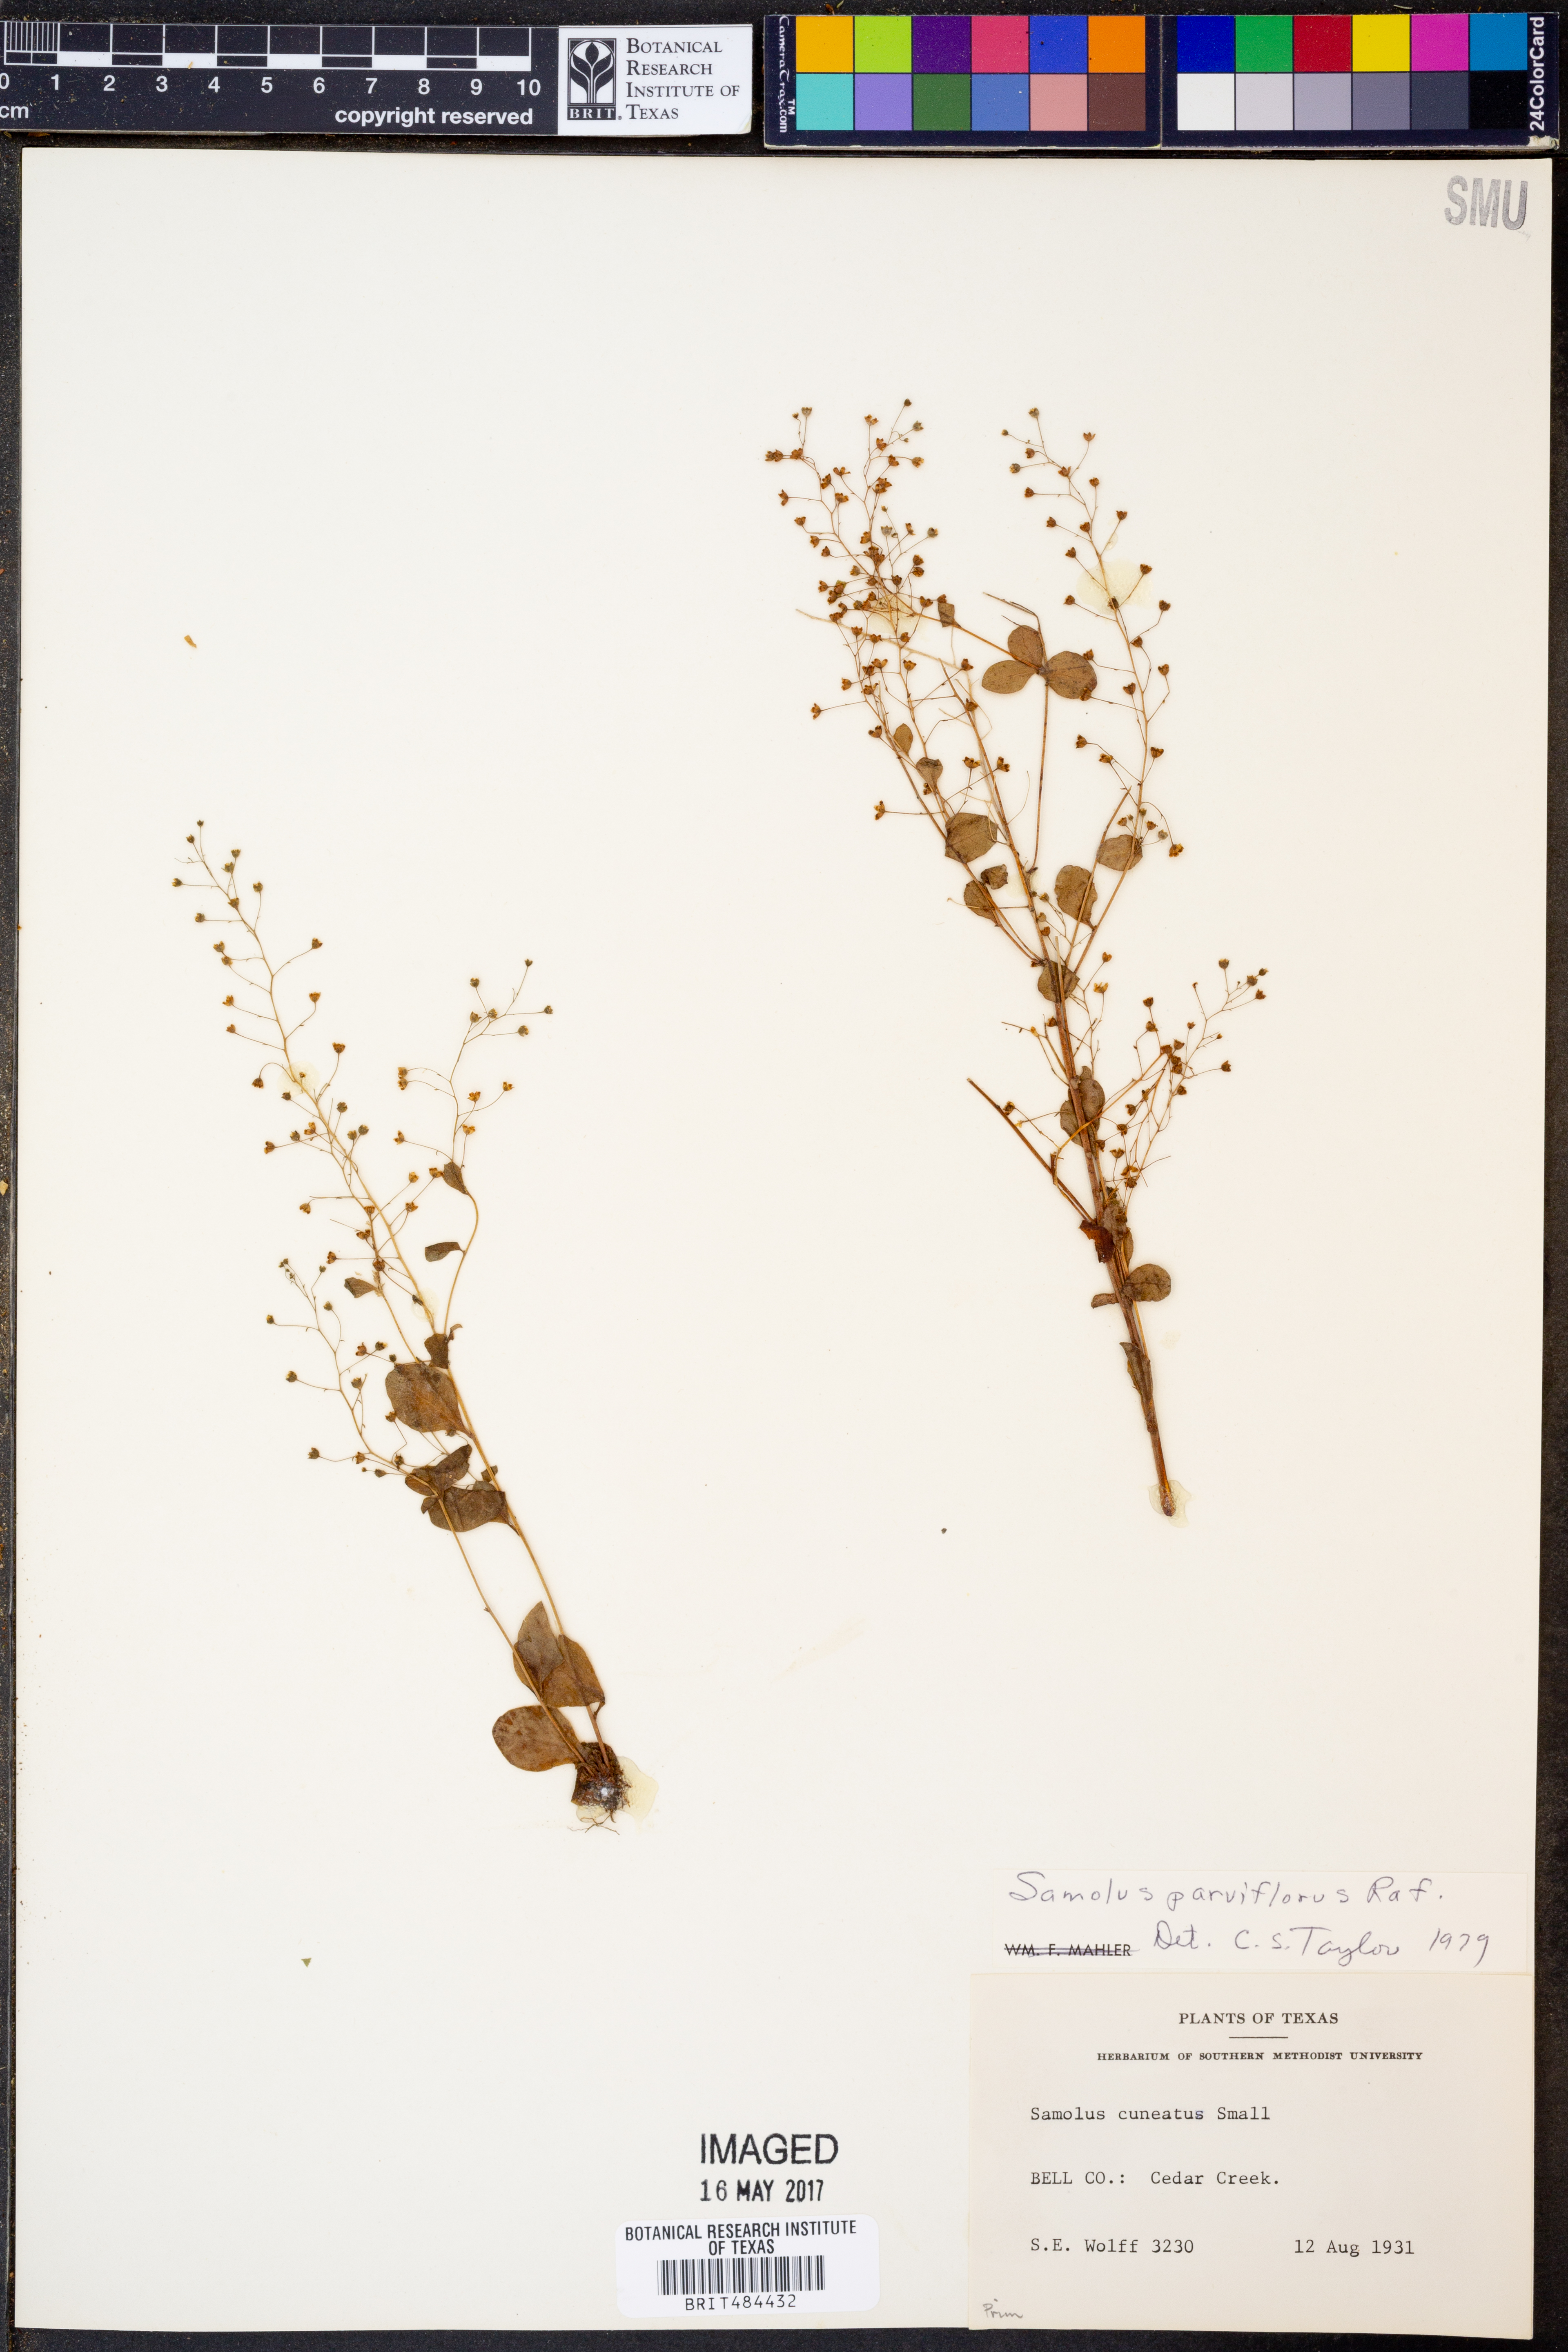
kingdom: Plantae
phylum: Tracheophyta
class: Magnoliopsida
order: Ericales
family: Primulaceae
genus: Samolus
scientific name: Samolus parviflorus
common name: False water pimpernel
